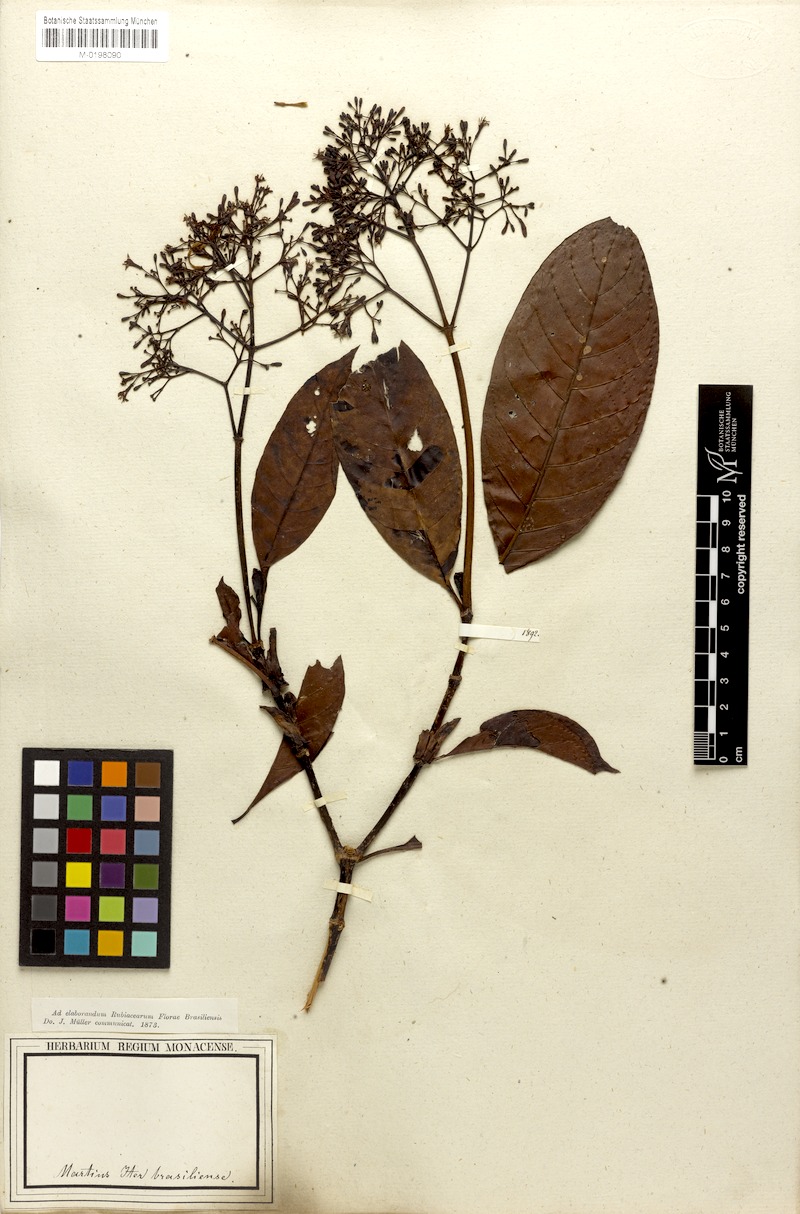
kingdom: Plantae
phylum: Tracheophyta
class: Magnoliopsida
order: Gentianales
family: Rubiaceae
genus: Psychotria
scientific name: Psychotria pedunculosa
